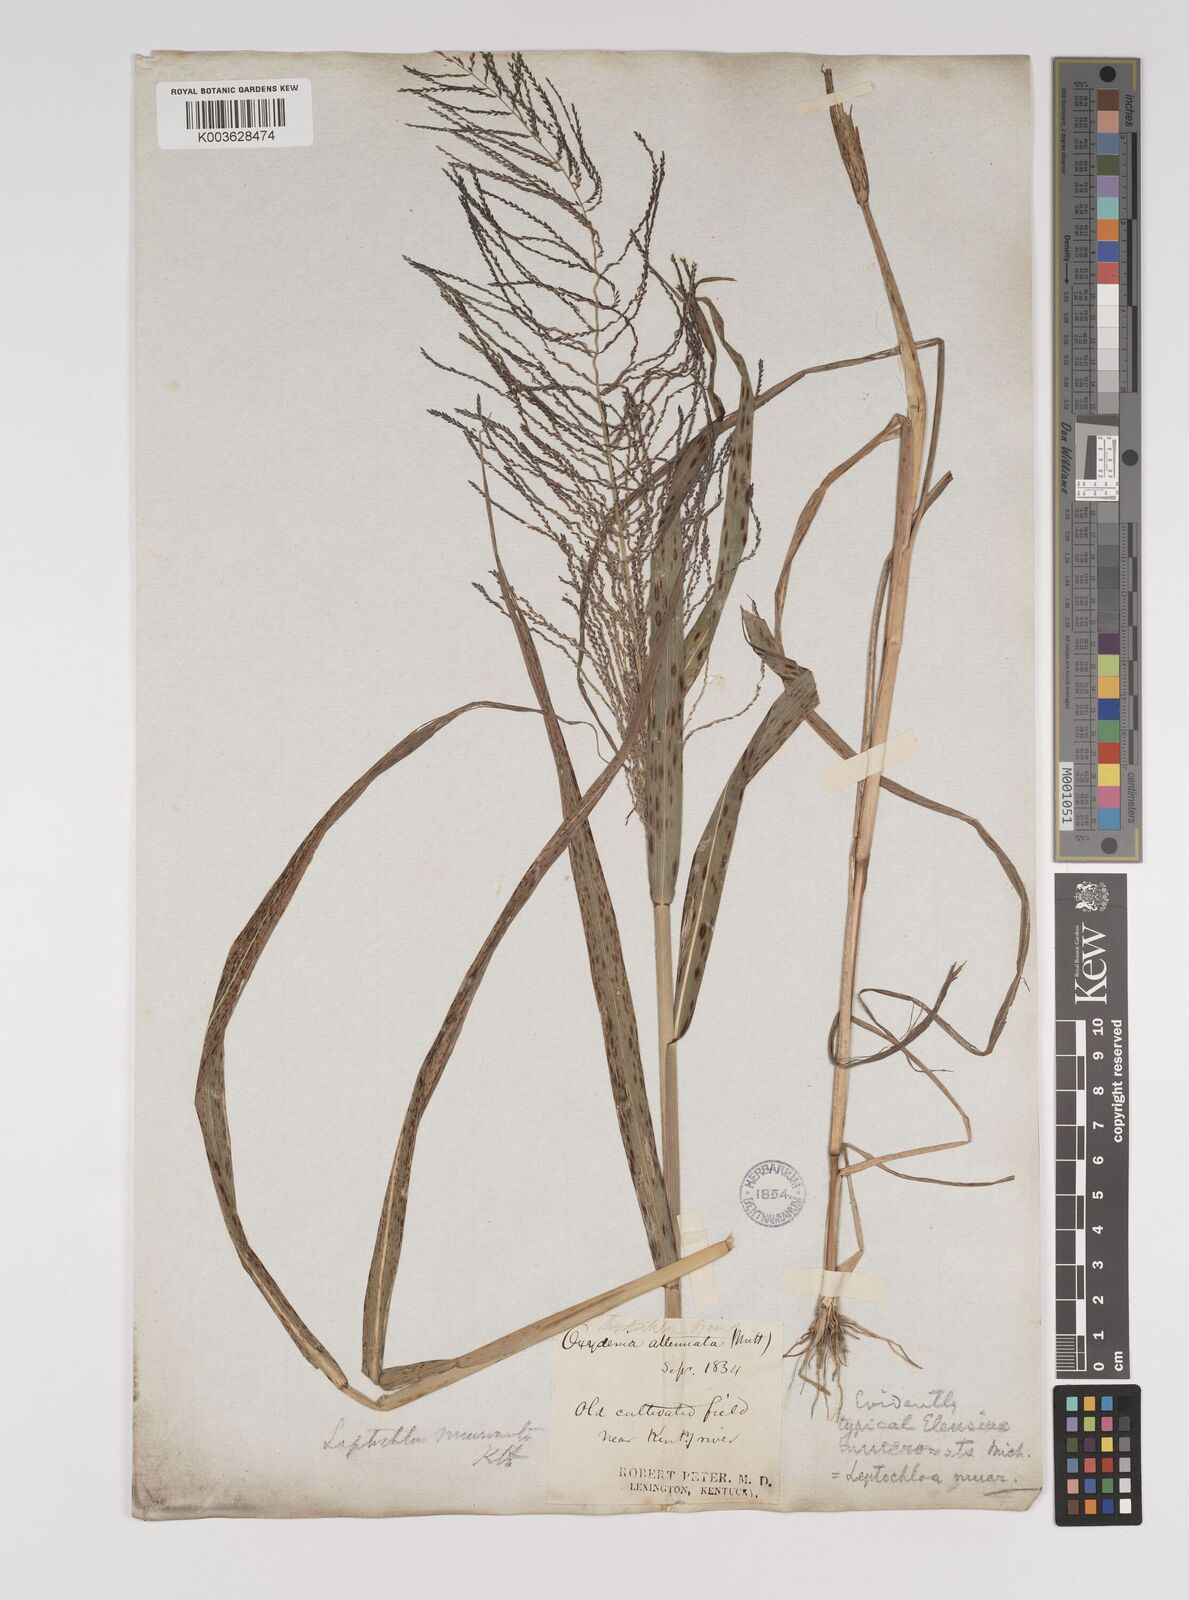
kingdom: Plantae
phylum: Tracheophyta
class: Liliopsida
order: Poales
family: Poaceae
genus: Leptochloa
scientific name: Leptochloa panicea
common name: Mucronate sprangletop
